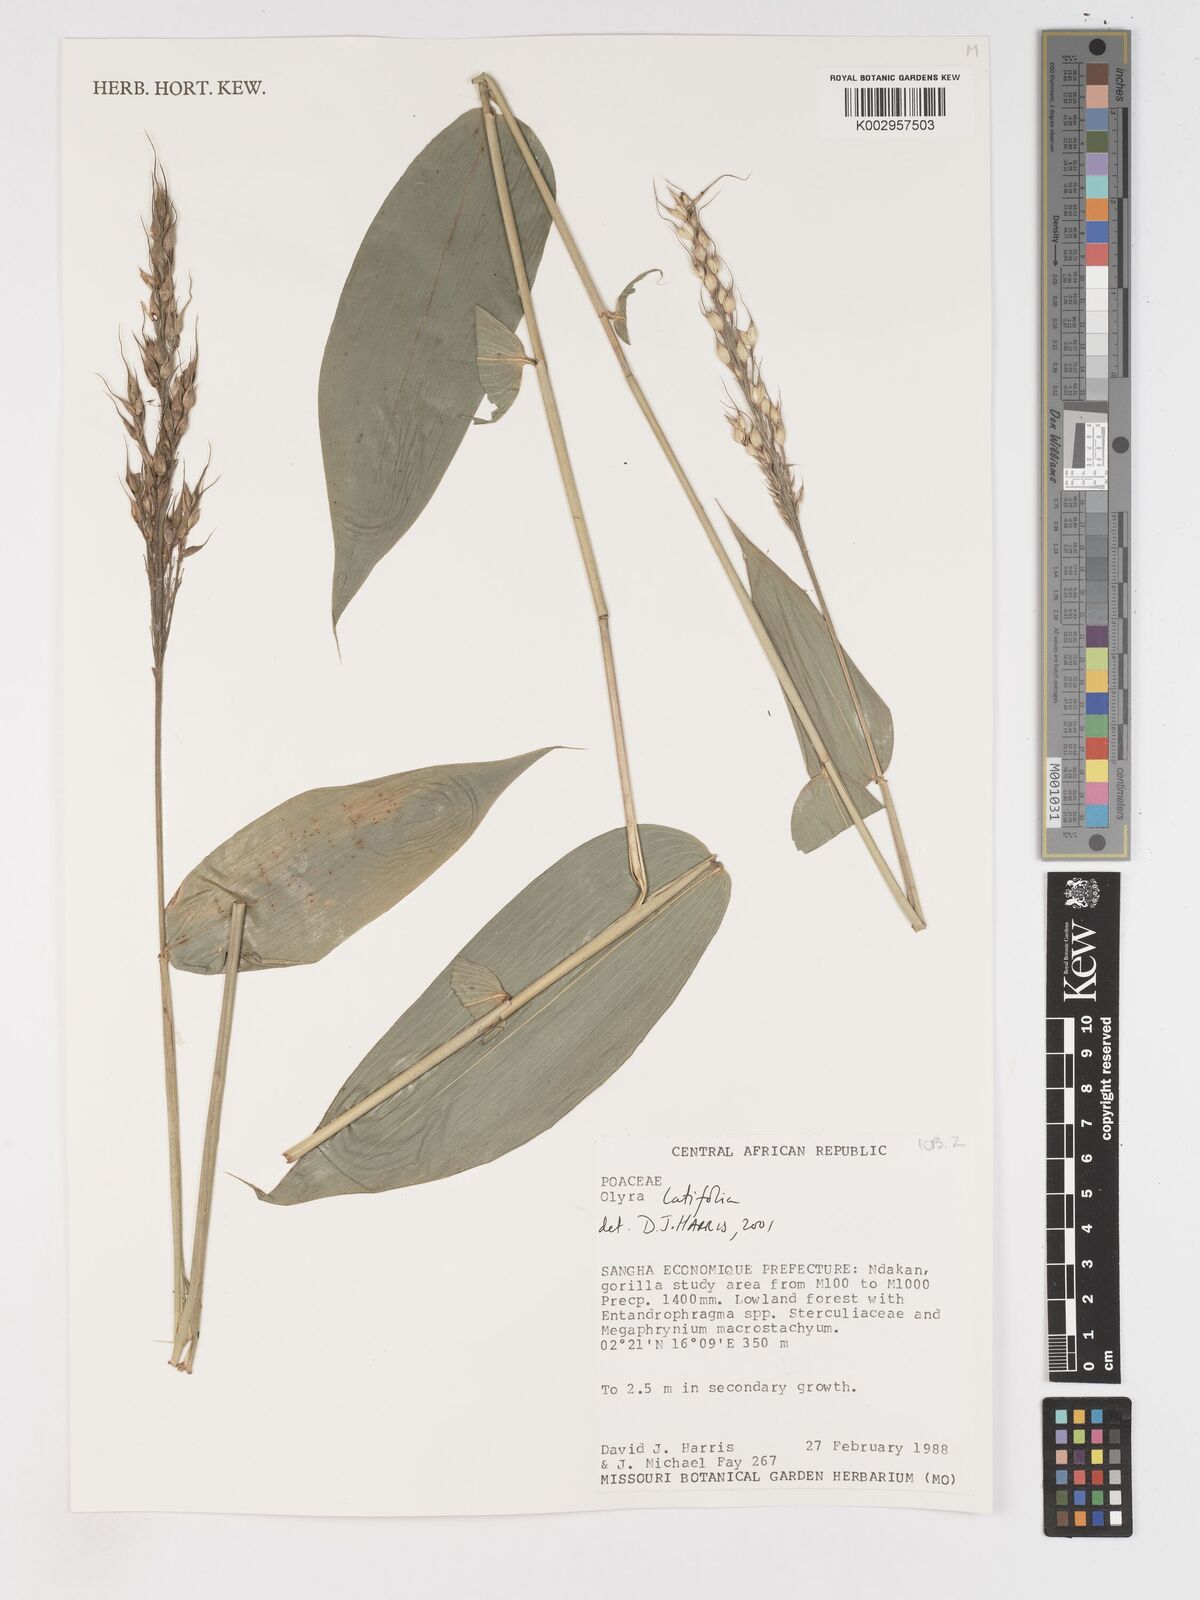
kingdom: Plantae
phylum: Tracheophyta
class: Liliopsida
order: Poales
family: Poaceae
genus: Olyra
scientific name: Olyra latifolia
